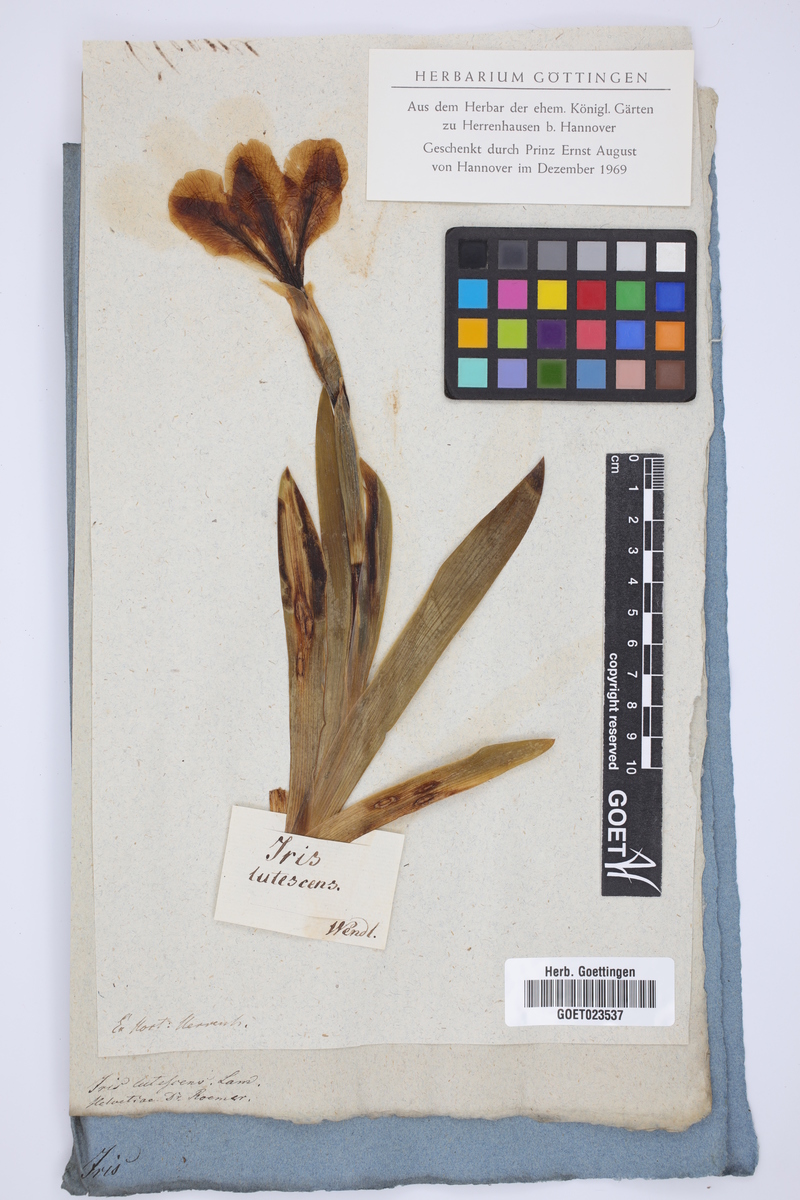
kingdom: Plantae
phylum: Tracheophyta
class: Liliopsida
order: Asparagales
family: Iridaceae
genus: Iris
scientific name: Iris lutescens
